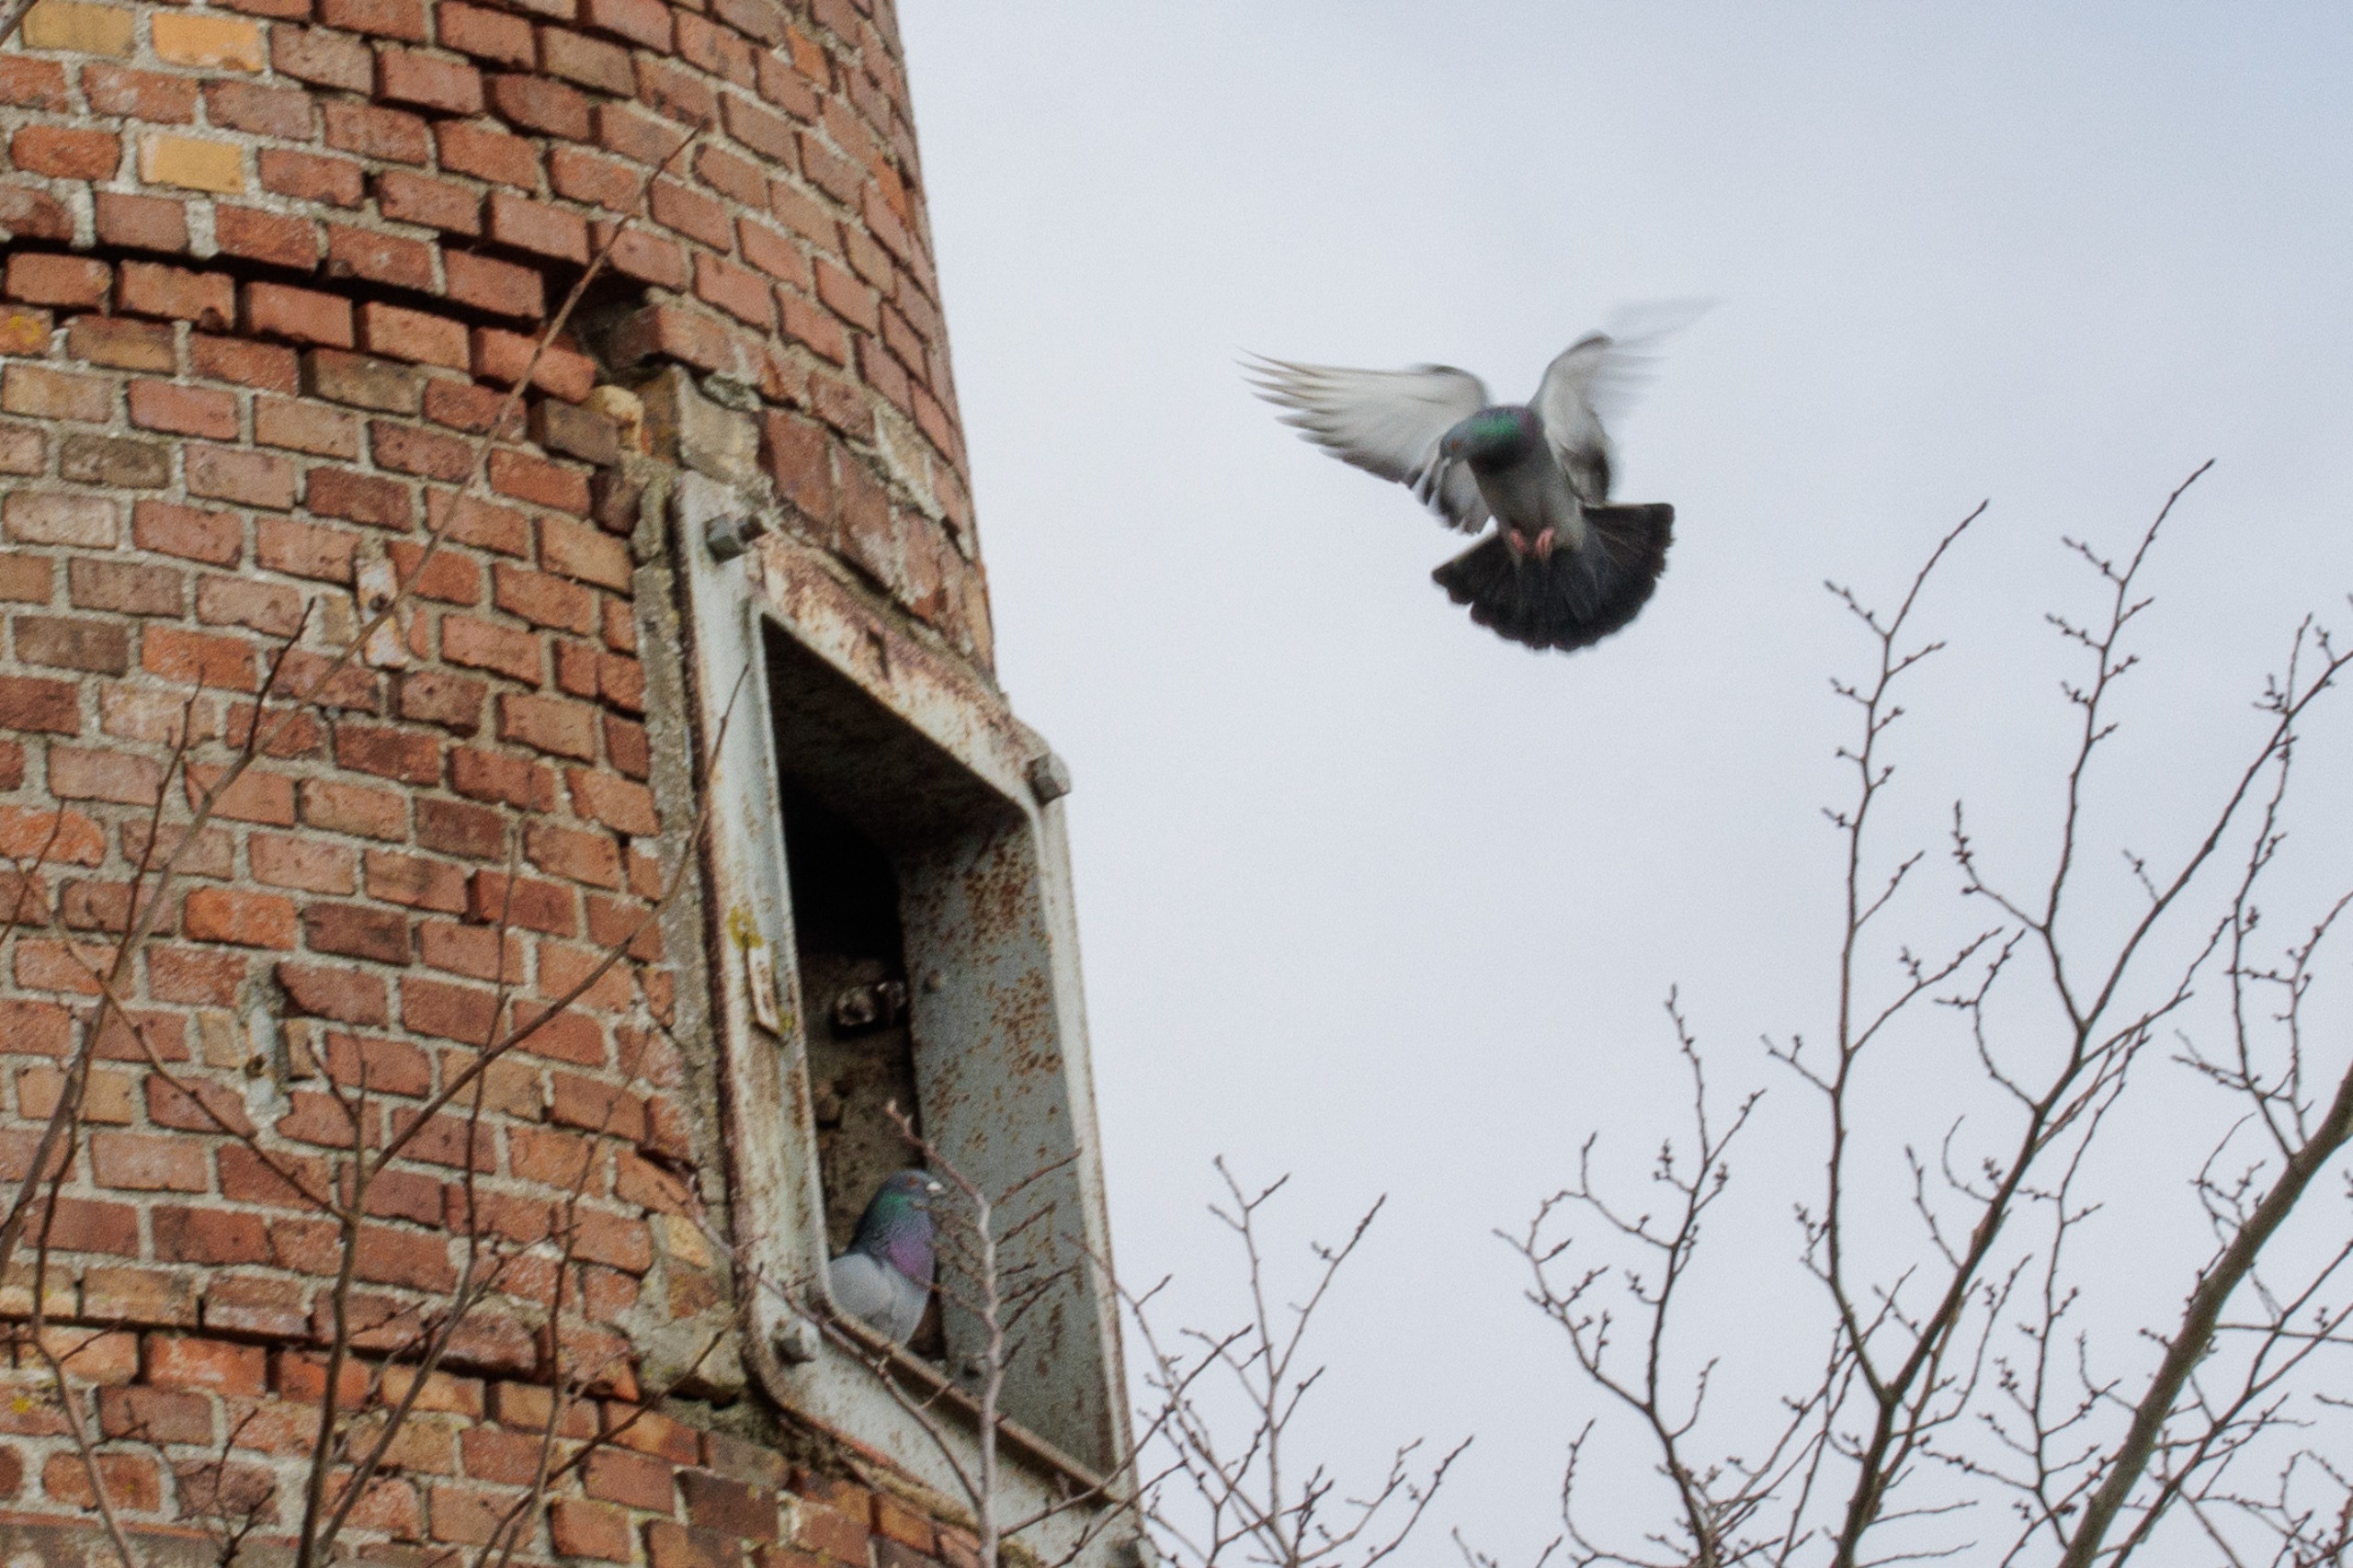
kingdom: Animalia
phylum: Chordata
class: Aves
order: Columbiformes
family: Columbidae
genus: Columba
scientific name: Columba livia
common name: Klippedue
